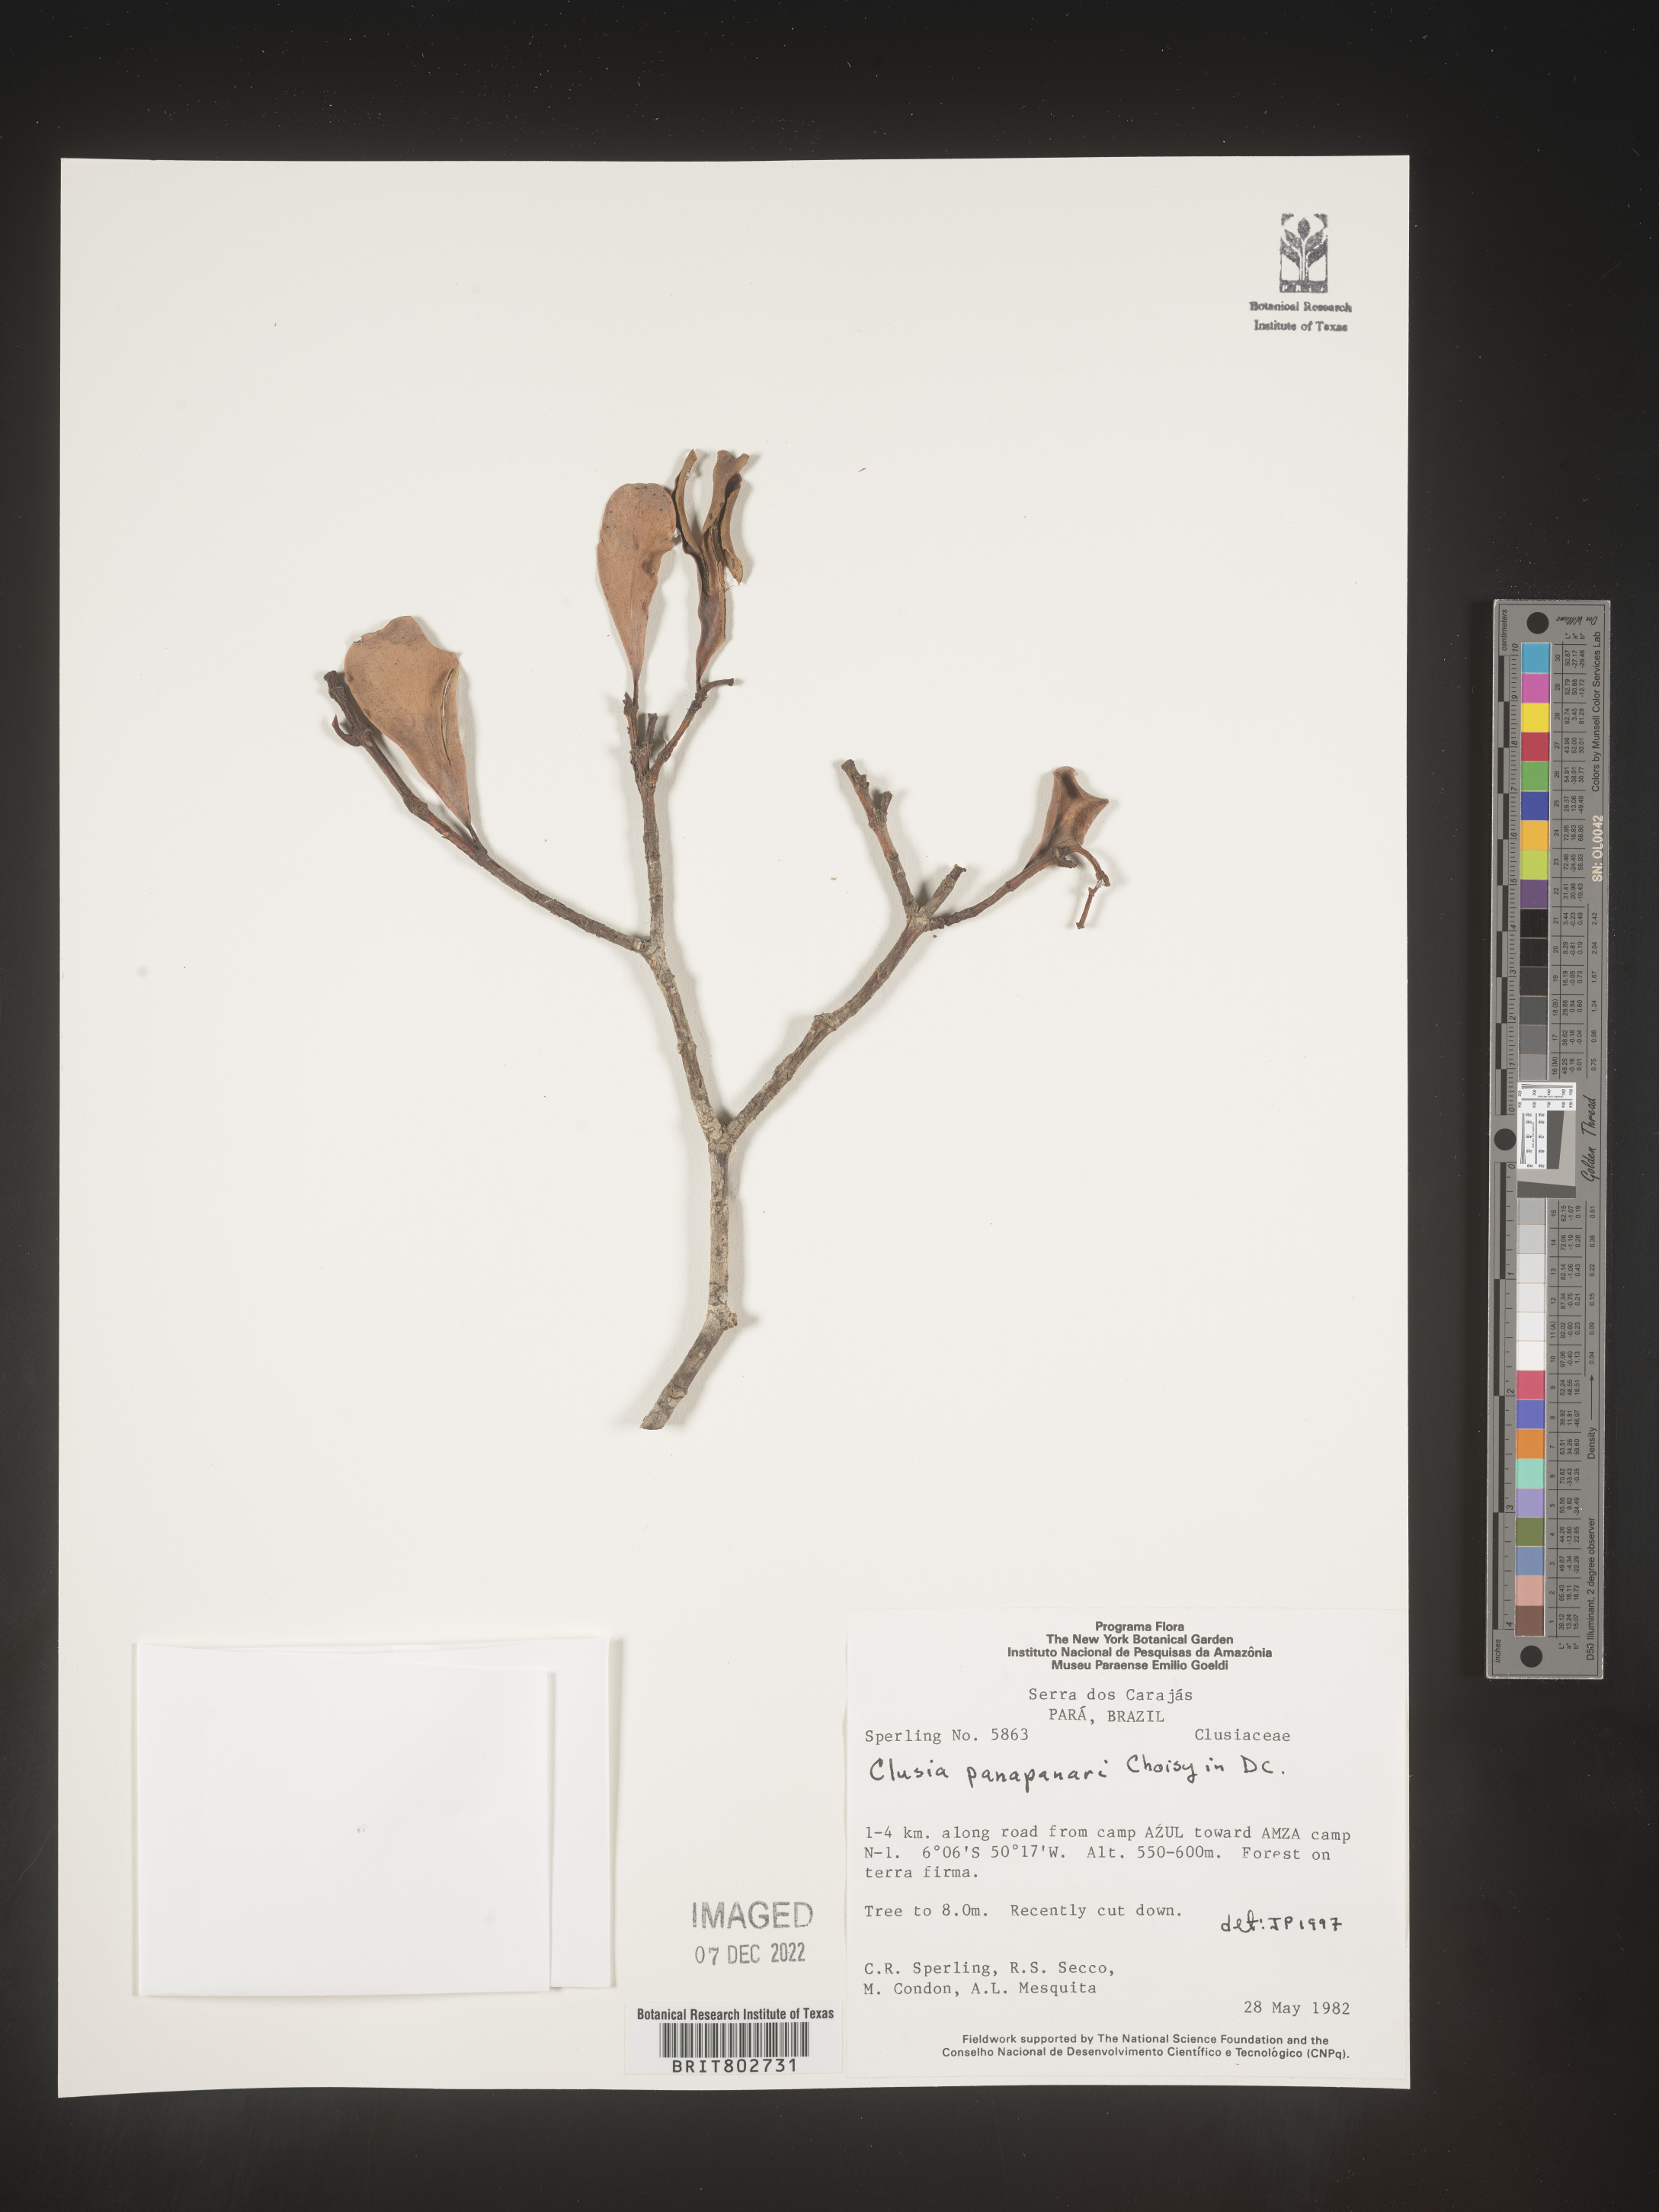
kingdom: Plantae
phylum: Tracheophyta
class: Magnoliopsida
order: Malpighiales
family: Clusiaceae
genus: Clusia
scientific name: Clusia panapanari
